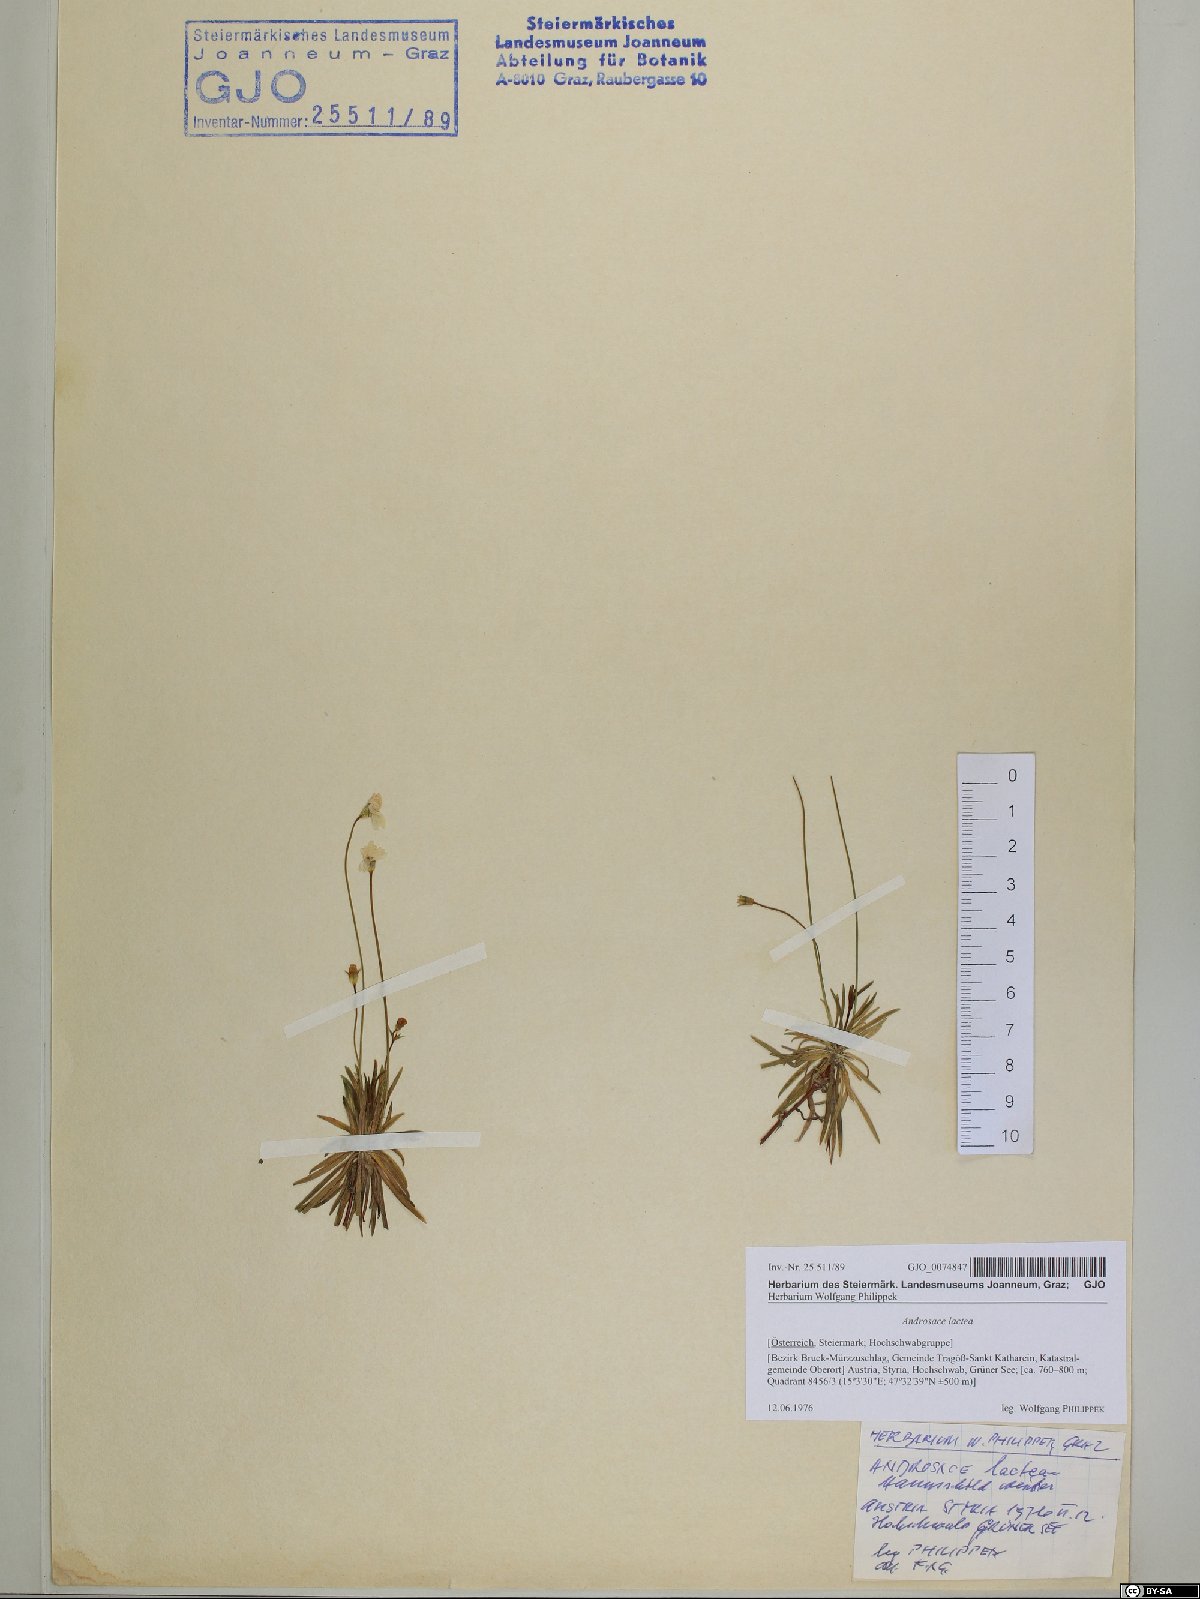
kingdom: Plantae
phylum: Tracheophyta
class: Magnoliopsida
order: Ericales
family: Primulaceae
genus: Androsace
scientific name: Androsace lactea
